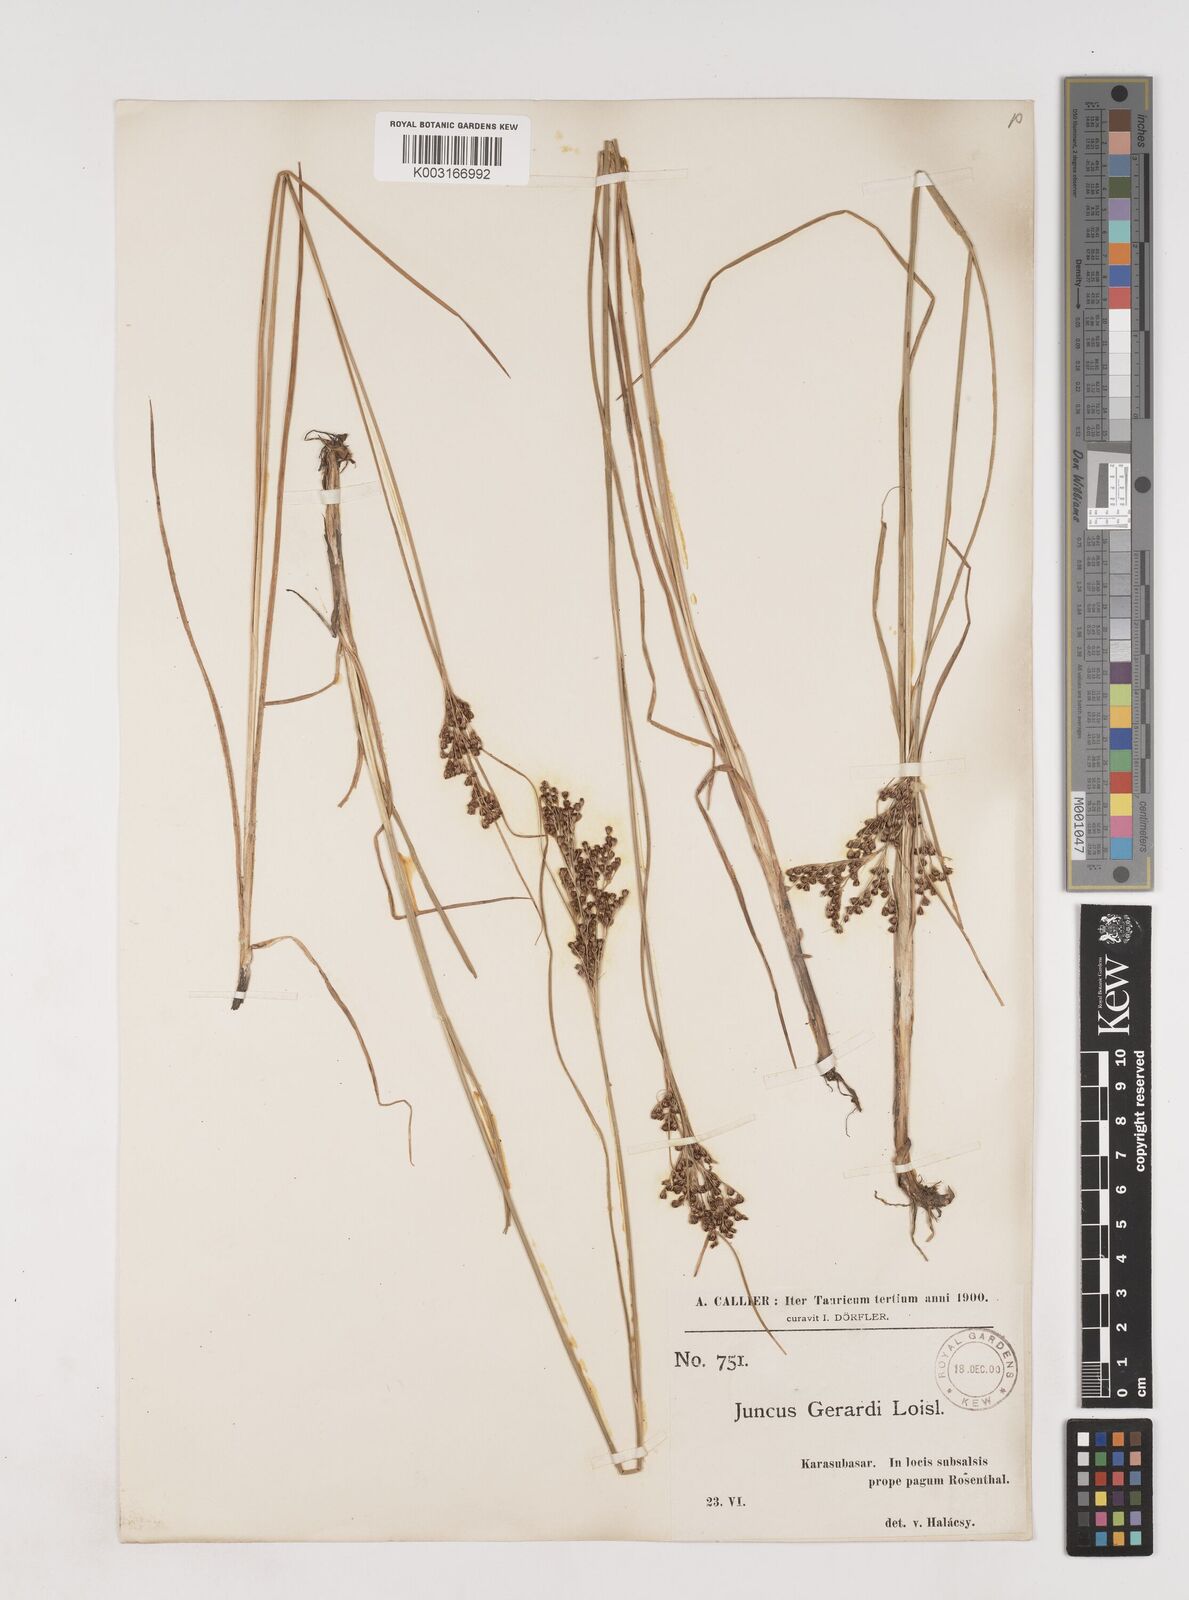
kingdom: Plantae
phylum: Tracheophyta
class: Liliopsida
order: Poales
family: Juncaceae
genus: Juncus
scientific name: Juncus
